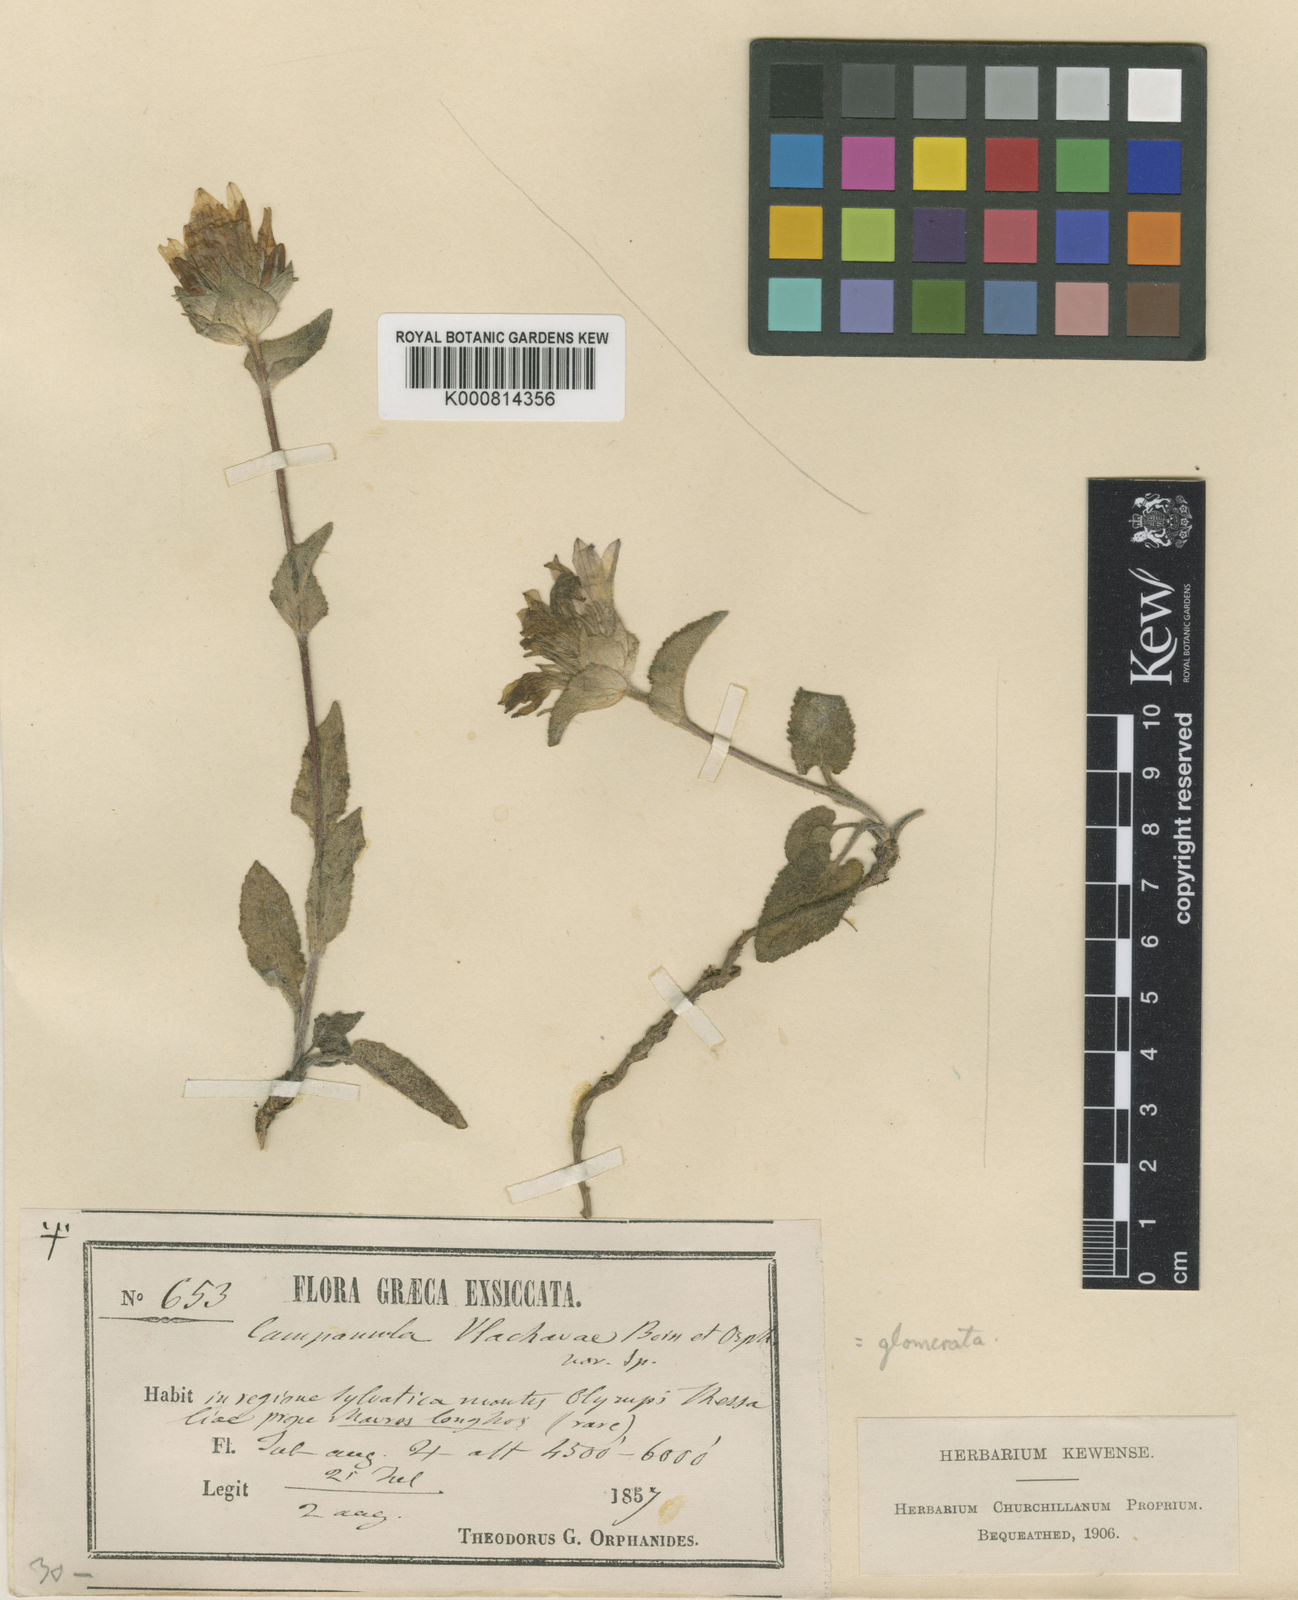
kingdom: Plantae
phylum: Tracheophyta
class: Magnoliopsida
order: Asterales
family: Campanulaceae
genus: Campanula
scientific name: Campanula stenosiphon
